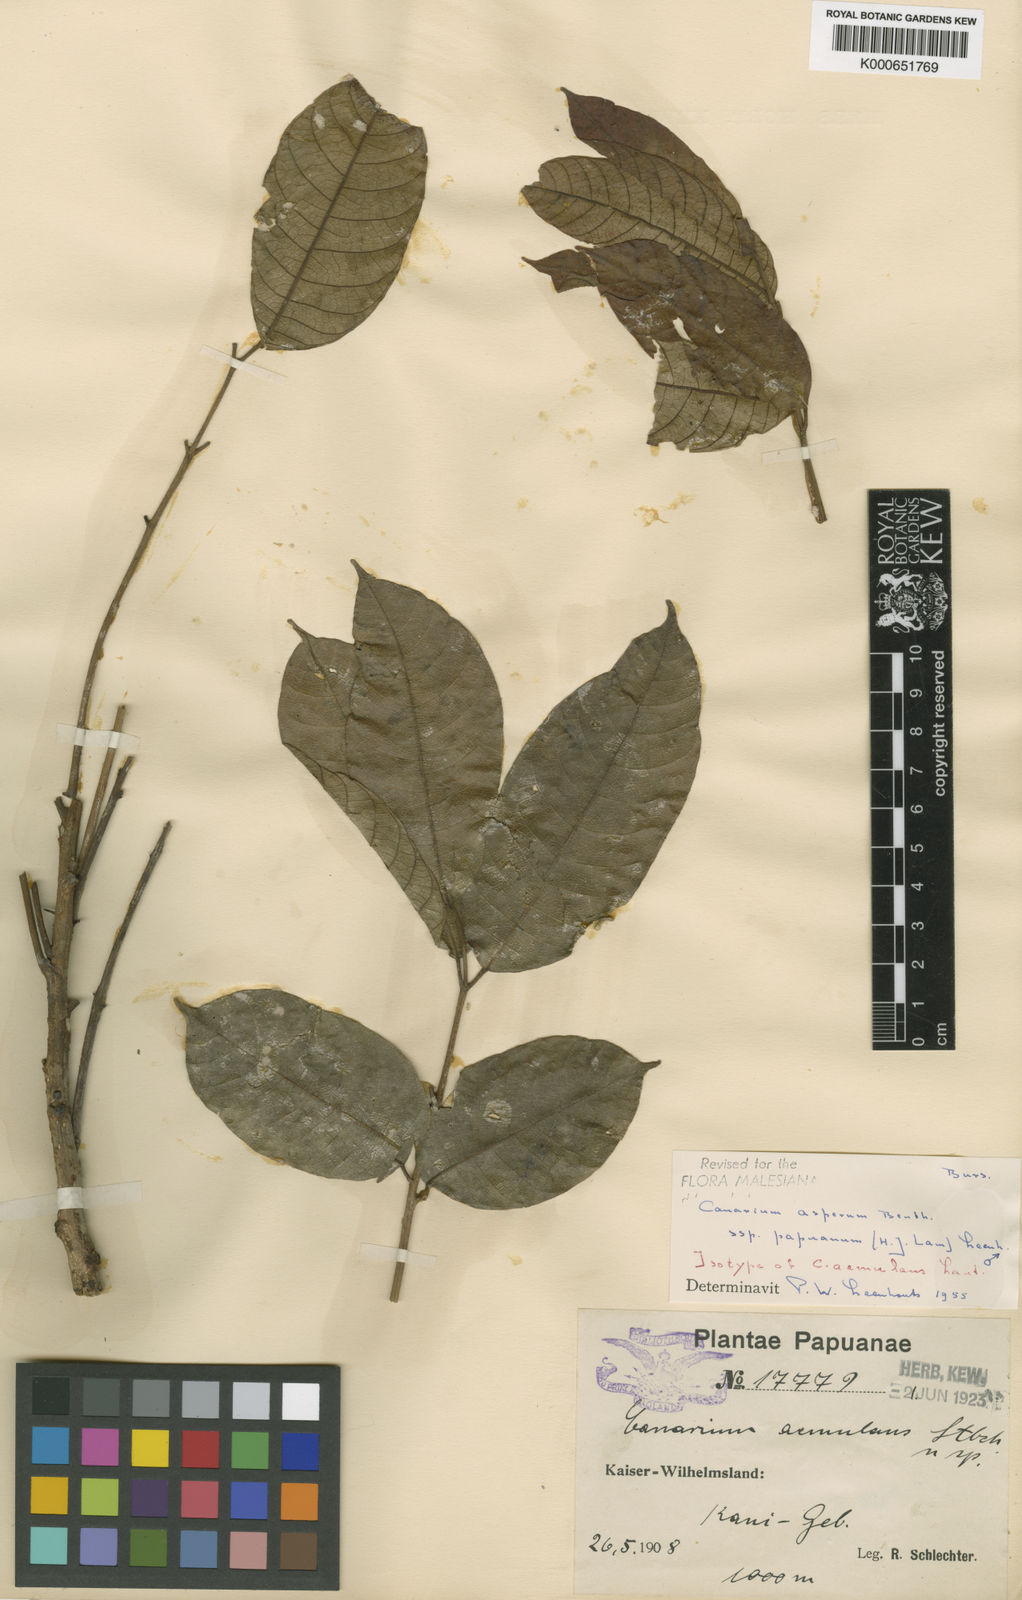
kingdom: Plantae
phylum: Tracheophyta
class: Magnoliopsida
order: Sapindales
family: Burseraceae
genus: Canarium
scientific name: Canarium asperum
